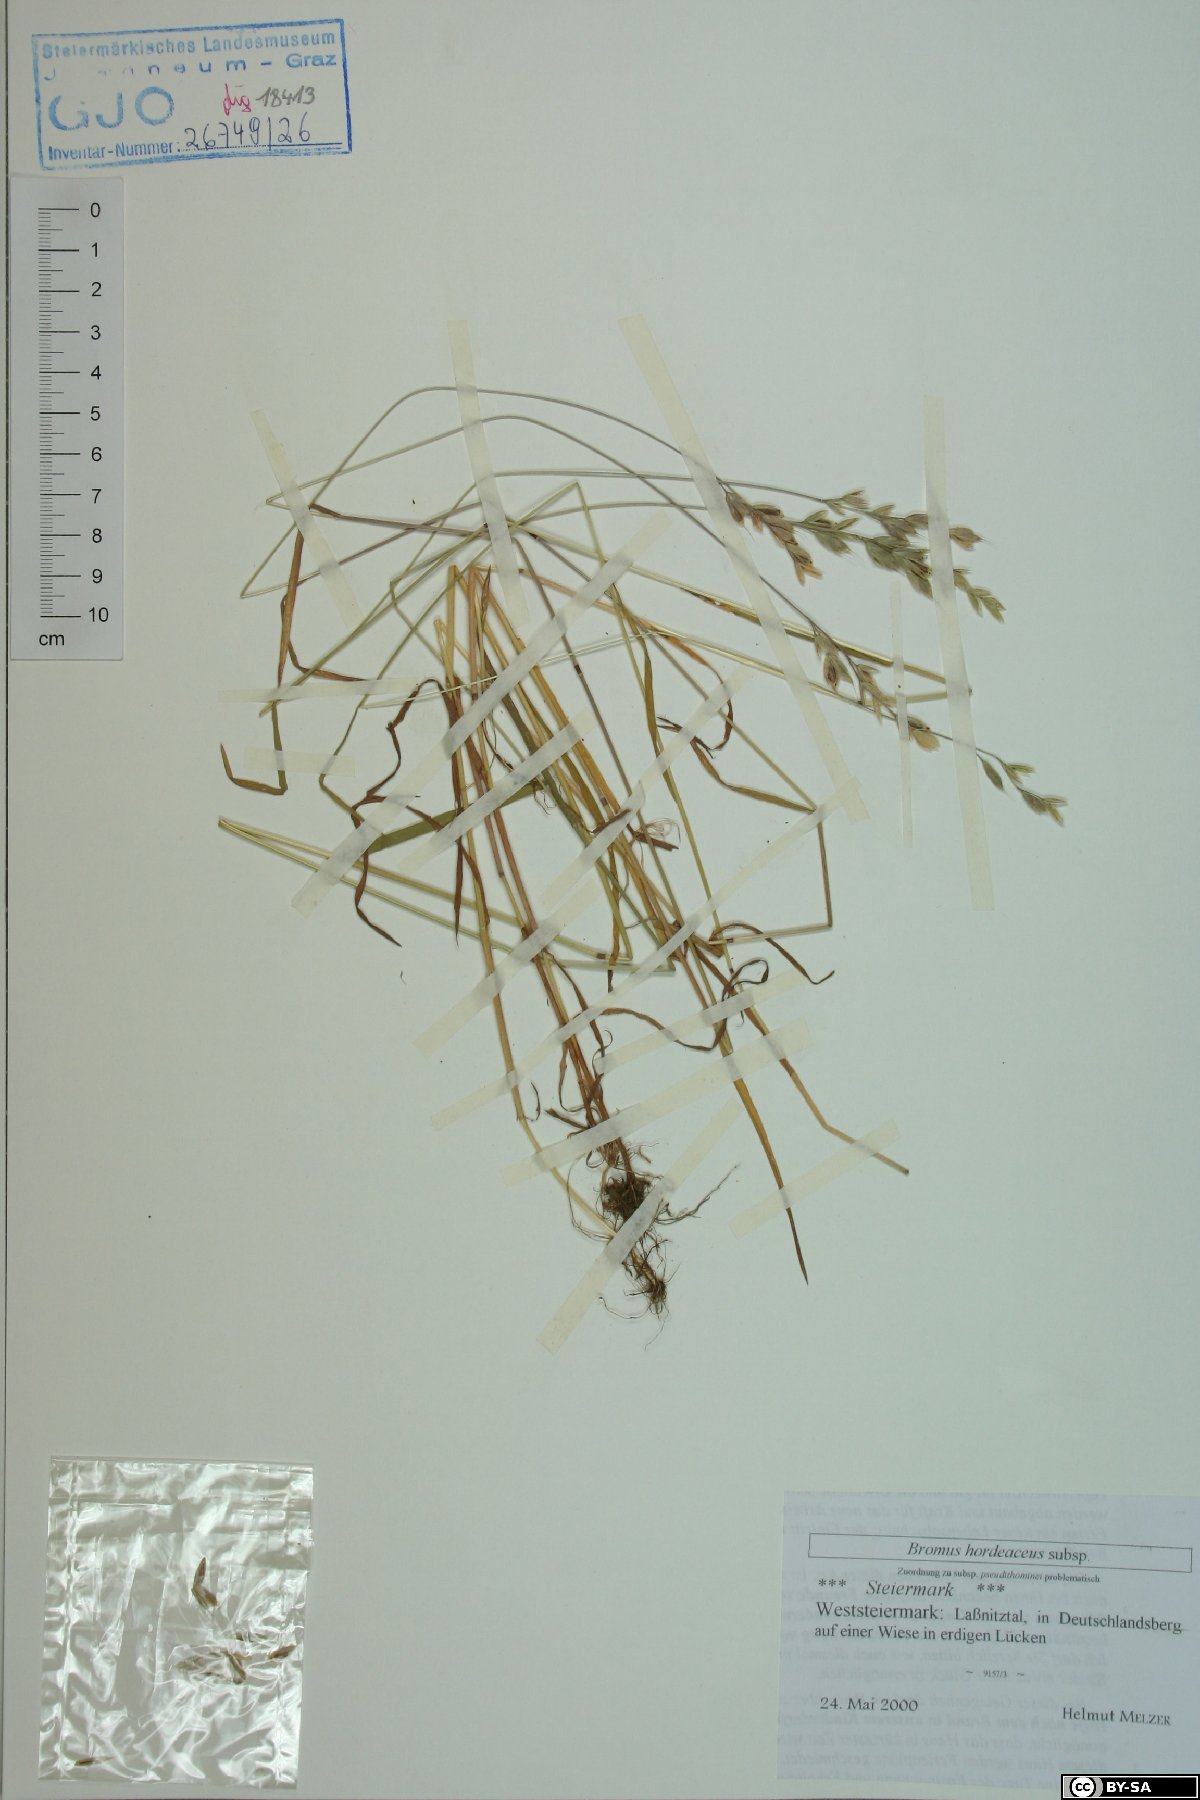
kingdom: Plantae
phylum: Tracheophyta
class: Liliopsida
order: Poales
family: Poaceae
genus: Bromus
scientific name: Bromus hordeaceus
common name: Soft brome
